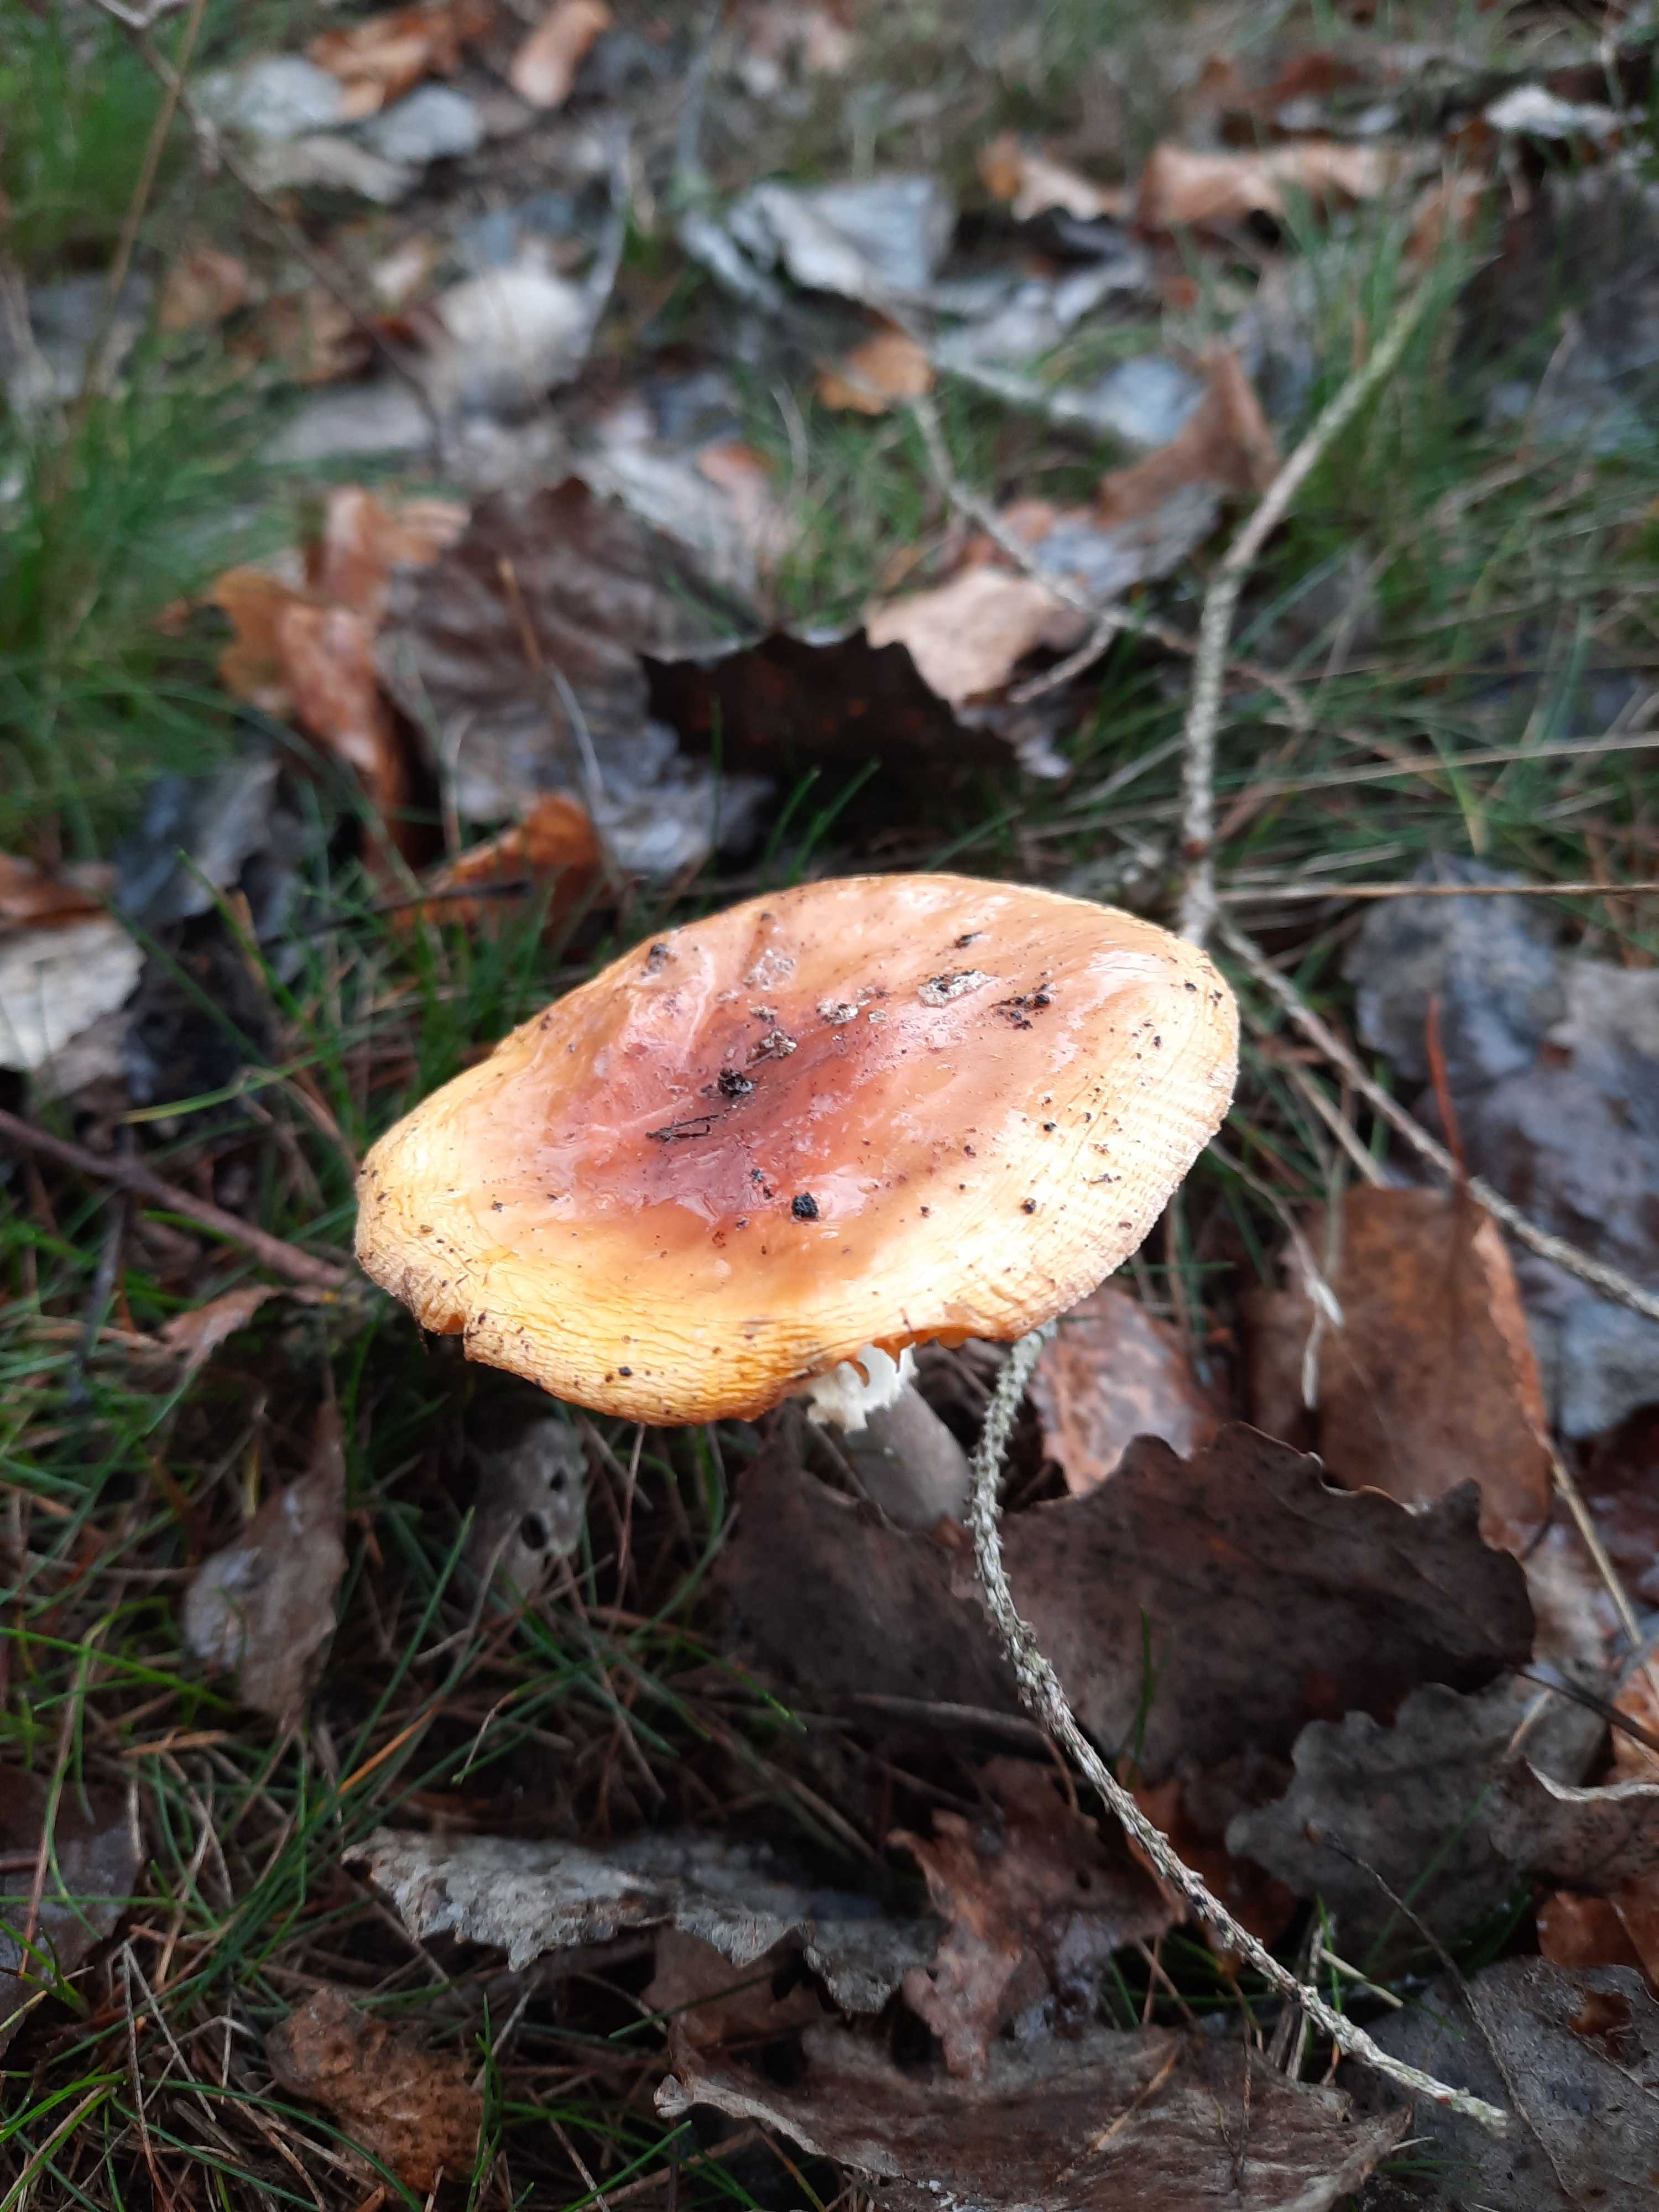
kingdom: Fungi
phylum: Basidiomycota
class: Agaricomycetes
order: Agaricales
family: Amanitaceae
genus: Amanita
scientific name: Amanita muscaria
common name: rød fluesvamp
